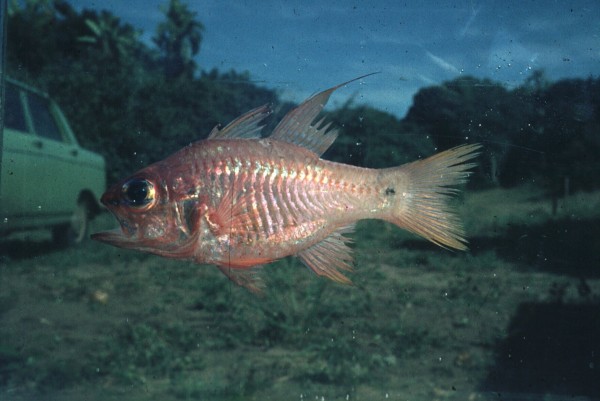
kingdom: Animalia
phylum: Chordata
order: Perciformes
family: Apogonidae
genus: Ostorhinchus
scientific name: Ostorhinchus flagelliferus
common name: Coachwhip cardinal
